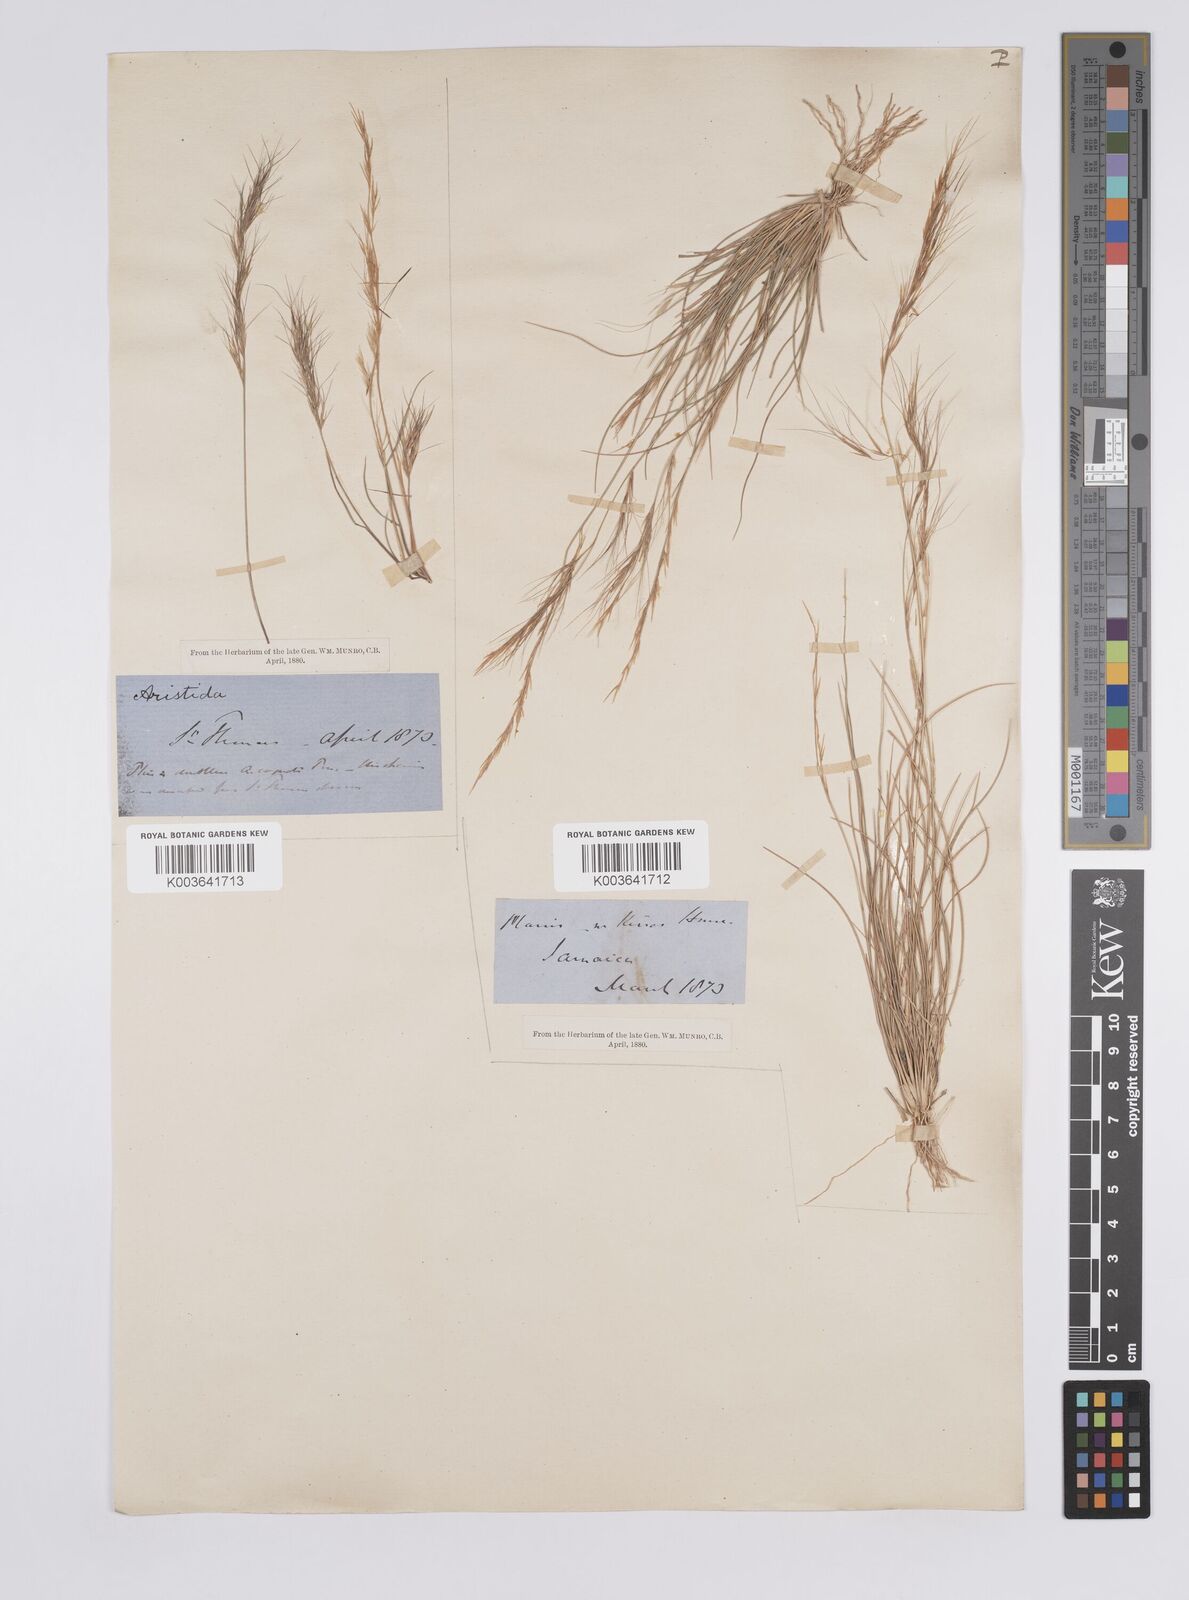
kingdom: Plantae
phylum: Tracheophyta
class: Liliopsida
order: Poales
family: Poaceae
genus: Aristida
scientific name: Aristida
